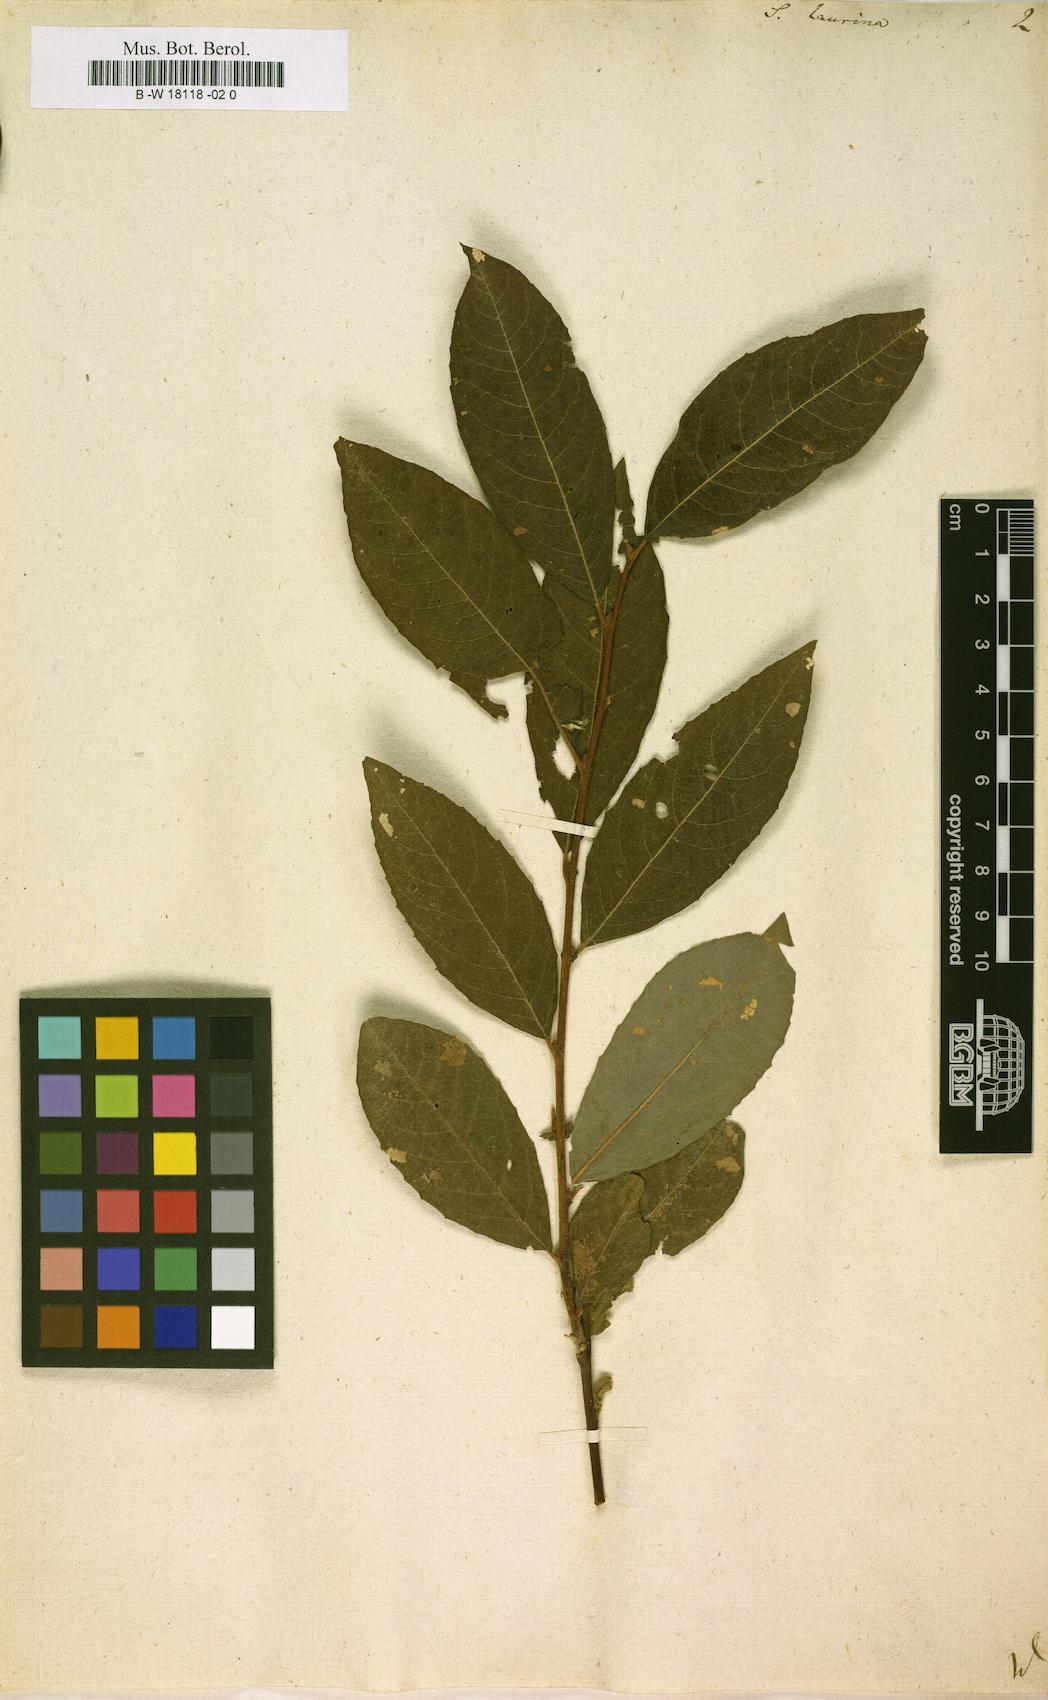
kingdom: Plantae
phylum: Tracheophyta
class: Magnoliopsida
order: Malpighiales
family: Salicaceae
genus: Salix
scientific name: Salix laurina
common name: Laurel-leaf willow
